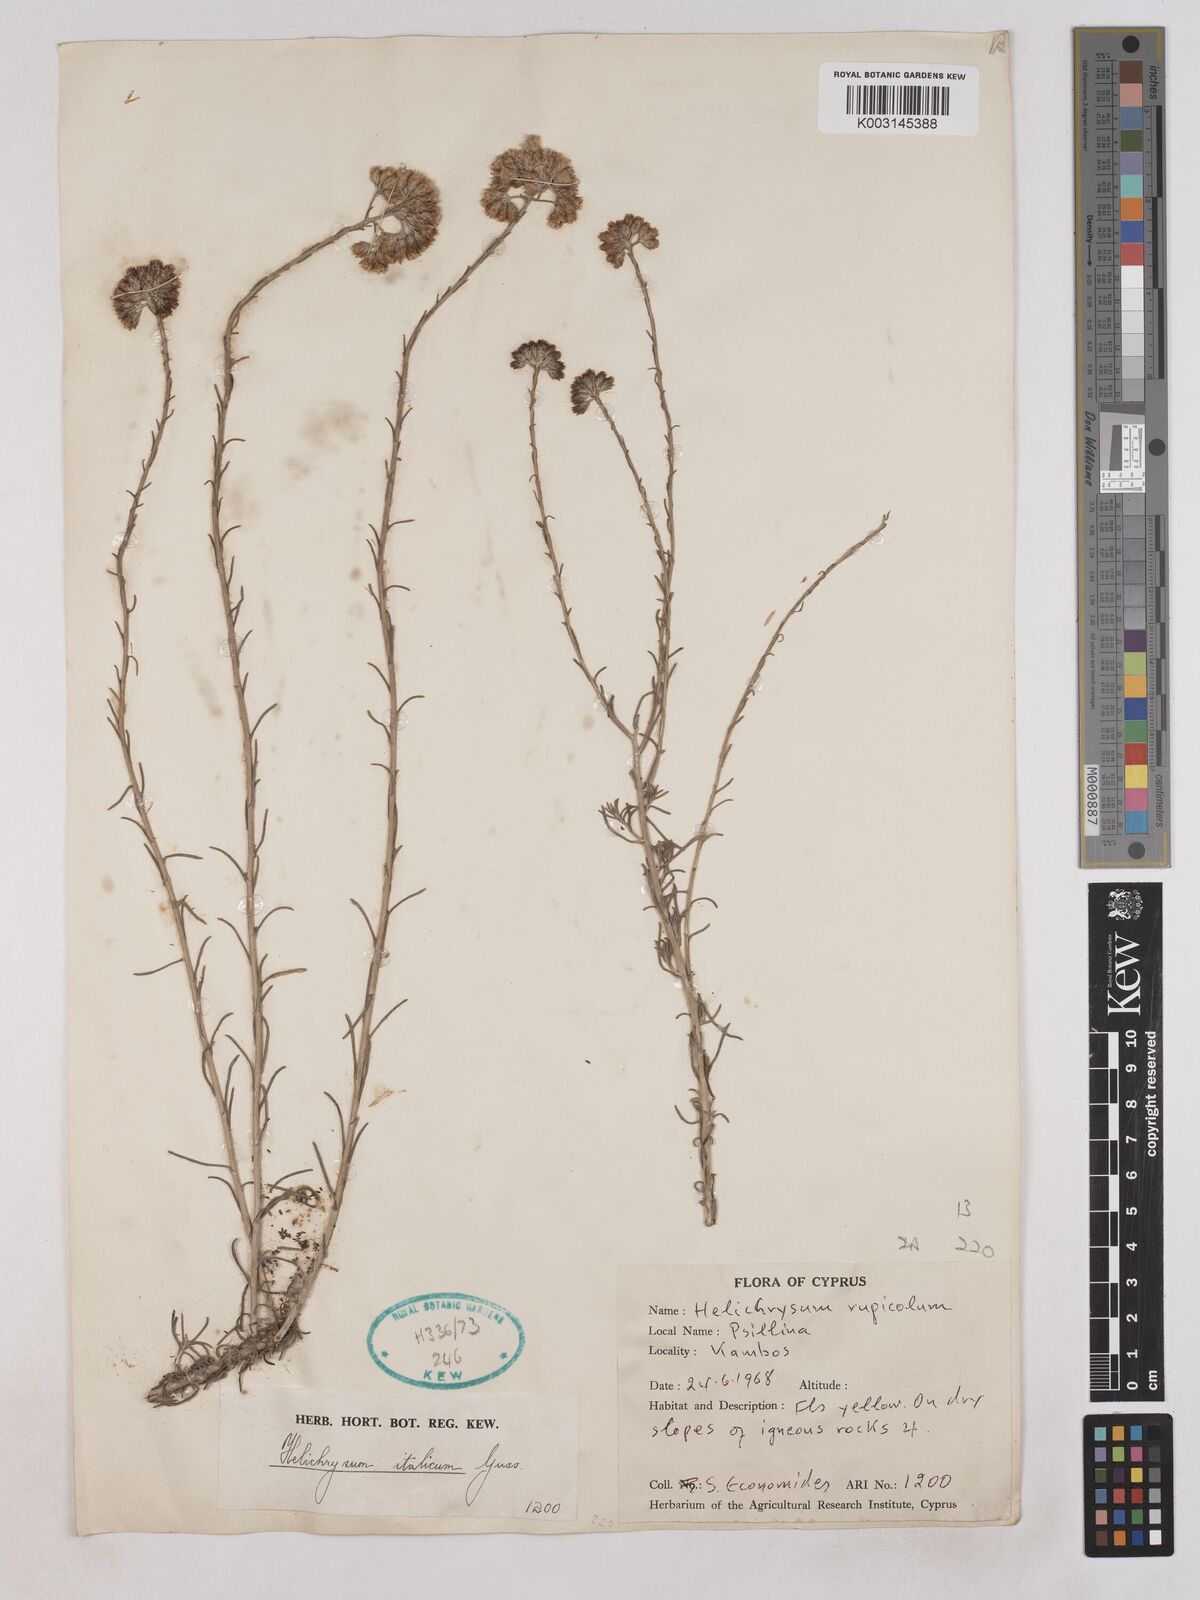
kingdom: Plantae
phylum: Tracheophyta
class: Magnoliopsida
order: Asterales
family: Asteraceae
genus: Helichrysum
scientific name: Helichrysum italicum
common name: Curryplant
